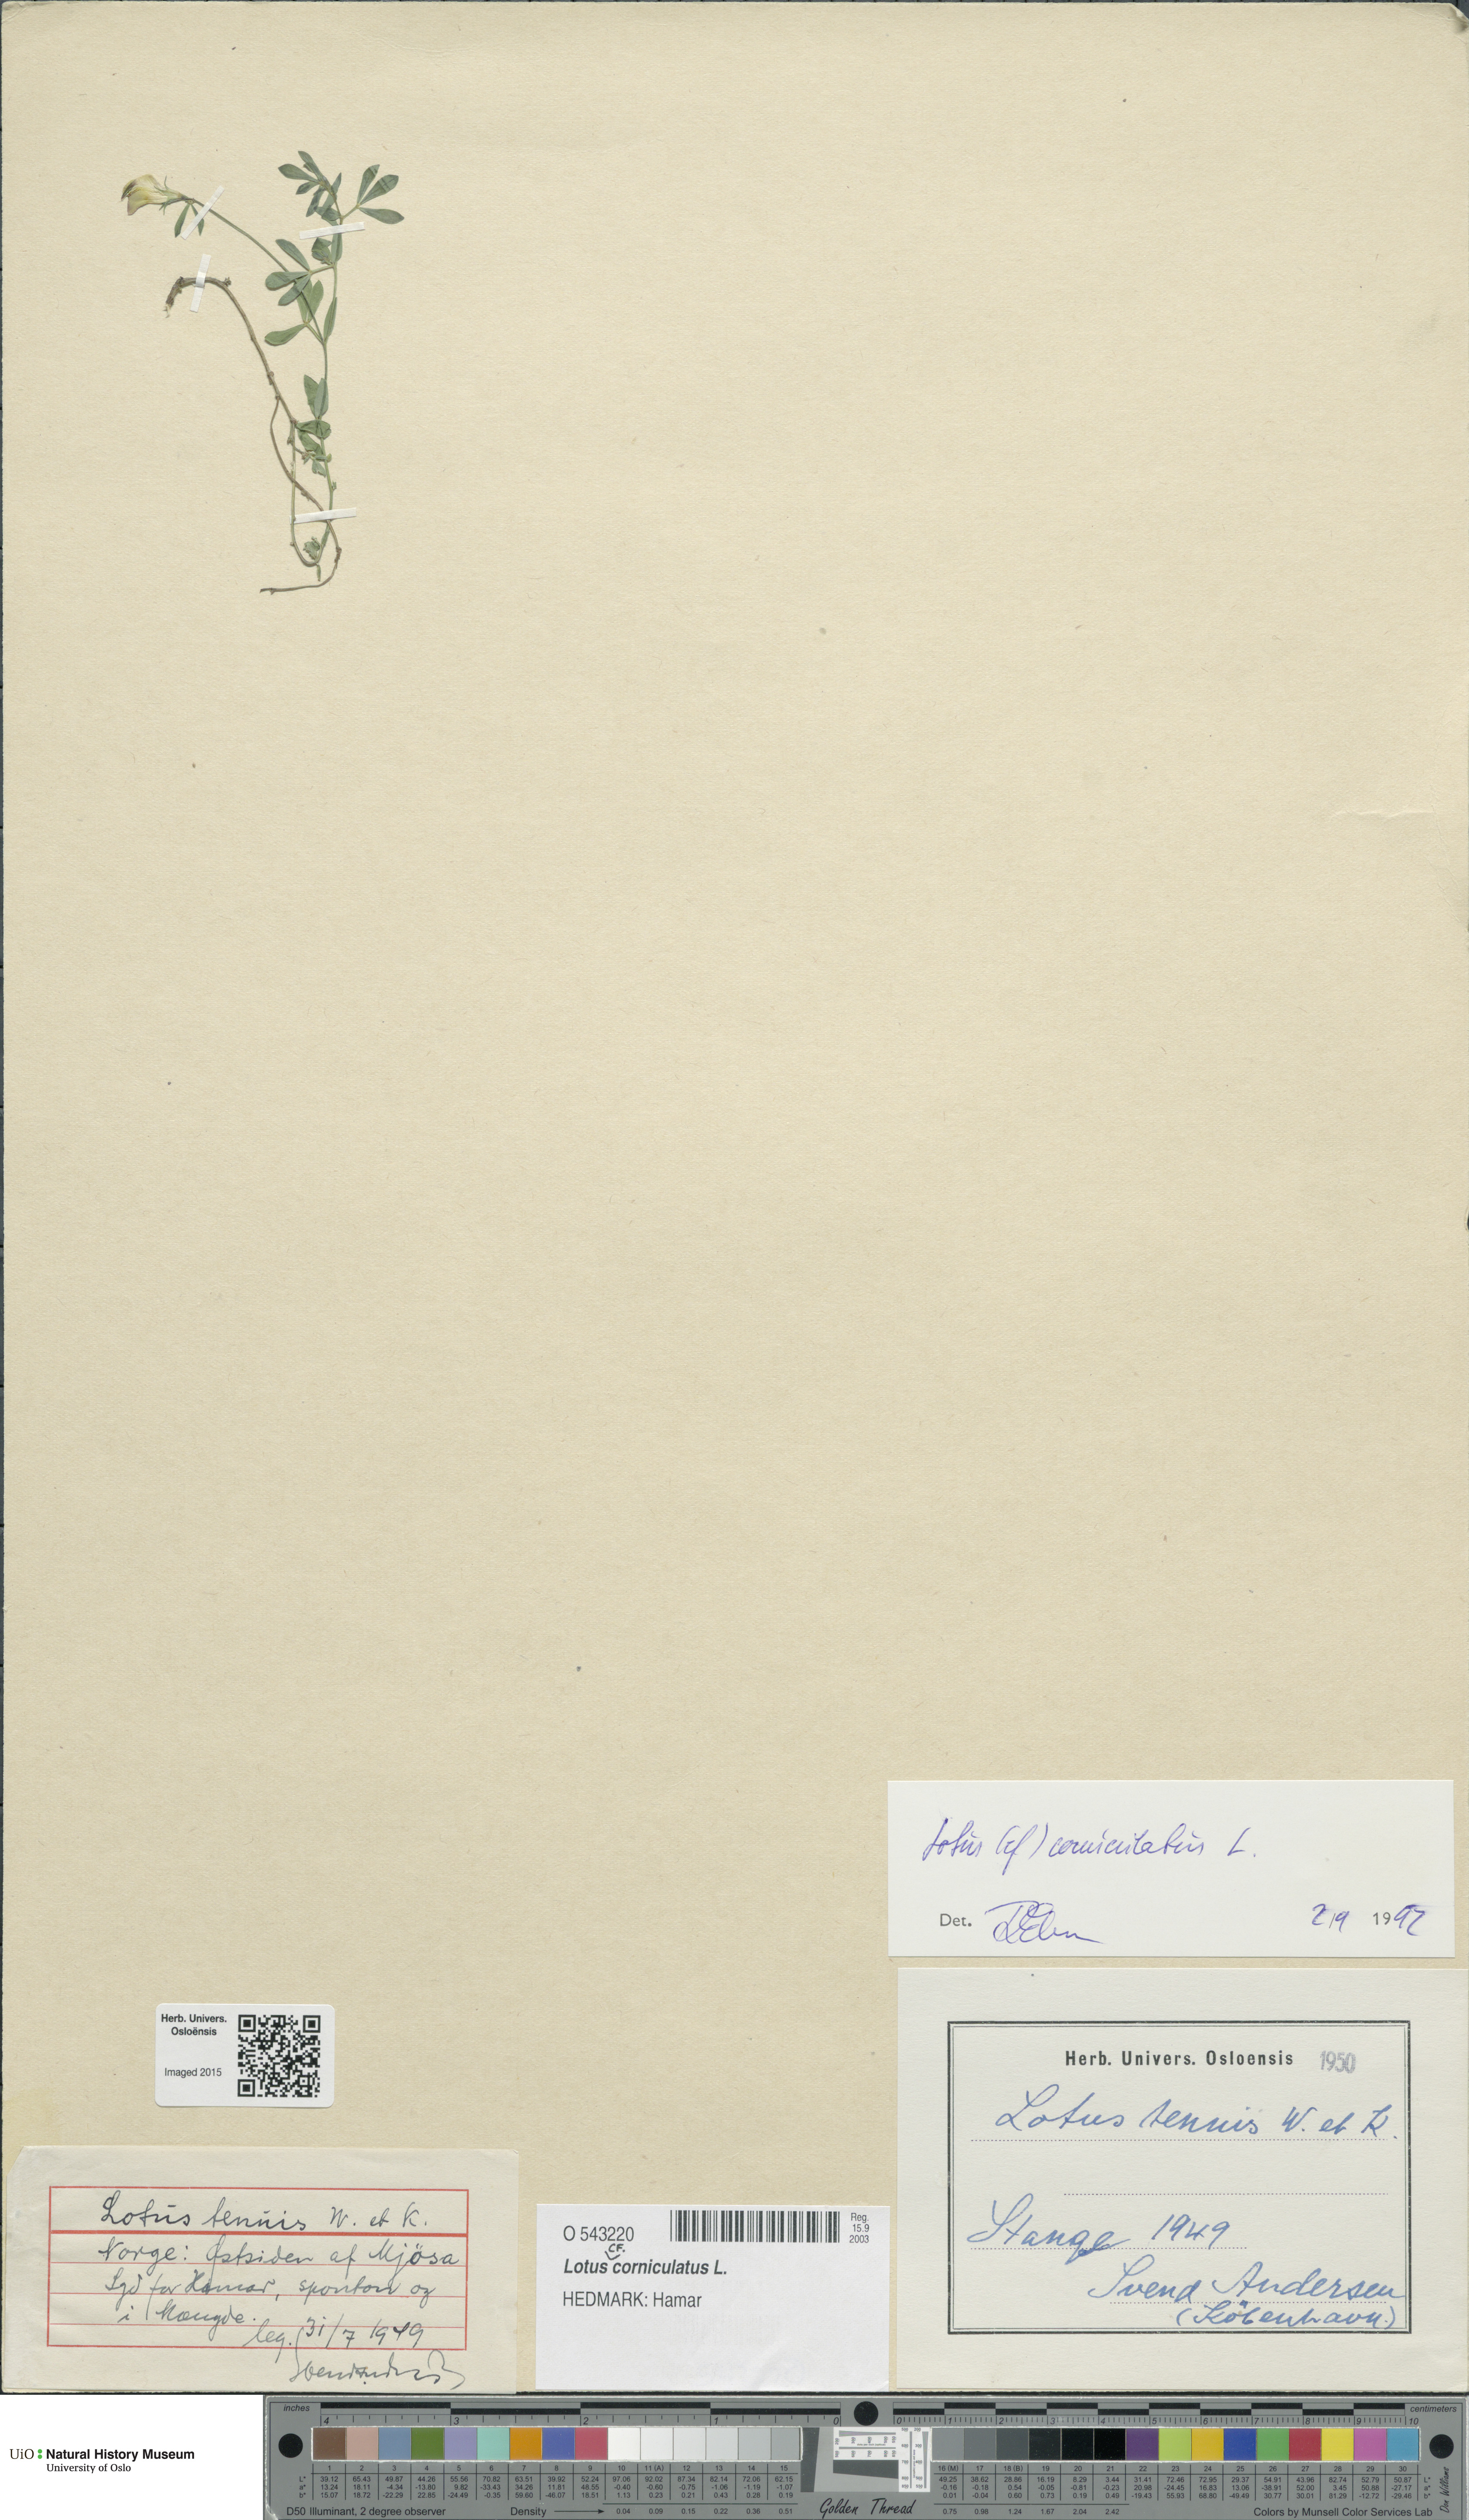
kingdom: Plantae
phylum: Tracheophyta
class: Magnoliopsida
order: Fabales
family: Fabaceae
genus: Lotus
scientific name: Lotus corniculatus
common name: Common bird's-foot-trefoil
